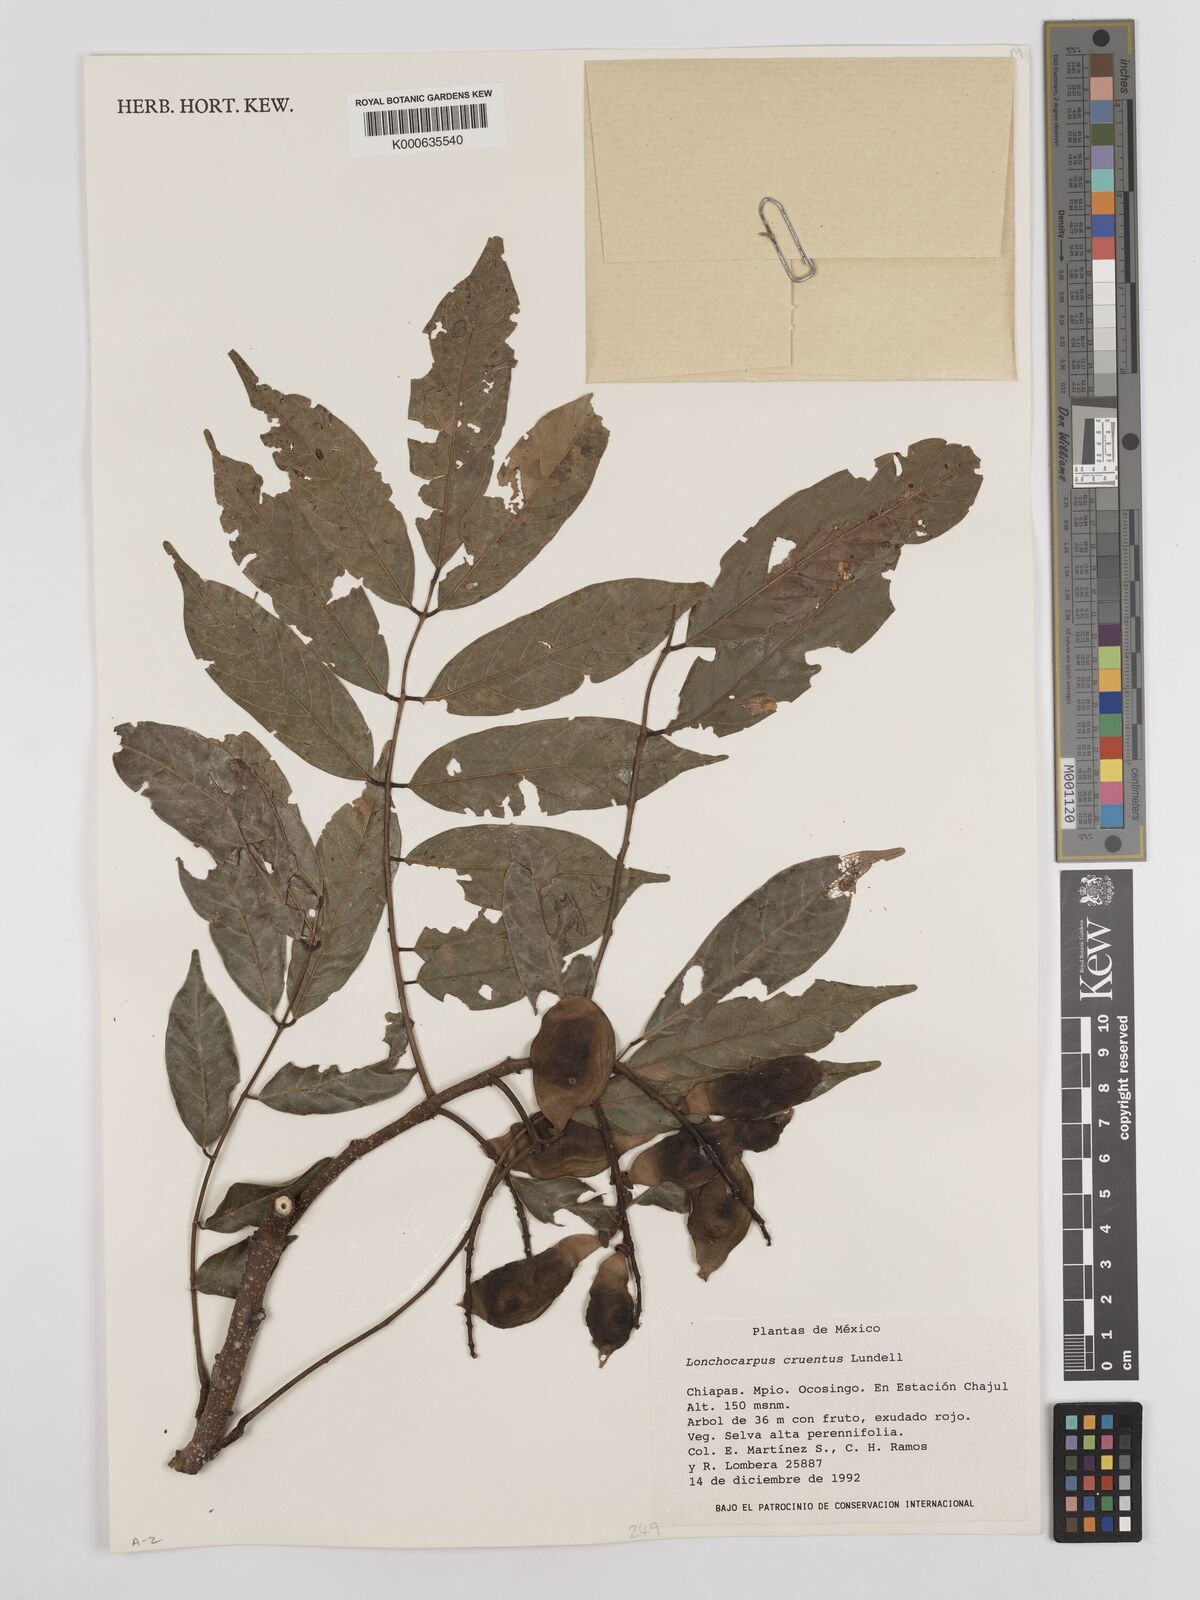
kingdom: Plantae
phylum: Tracheophyta
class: Magnoliopsida
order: Fabales
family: Fabaceae
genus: Lonchocarpus
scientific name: Lonchocarpus cruentus
